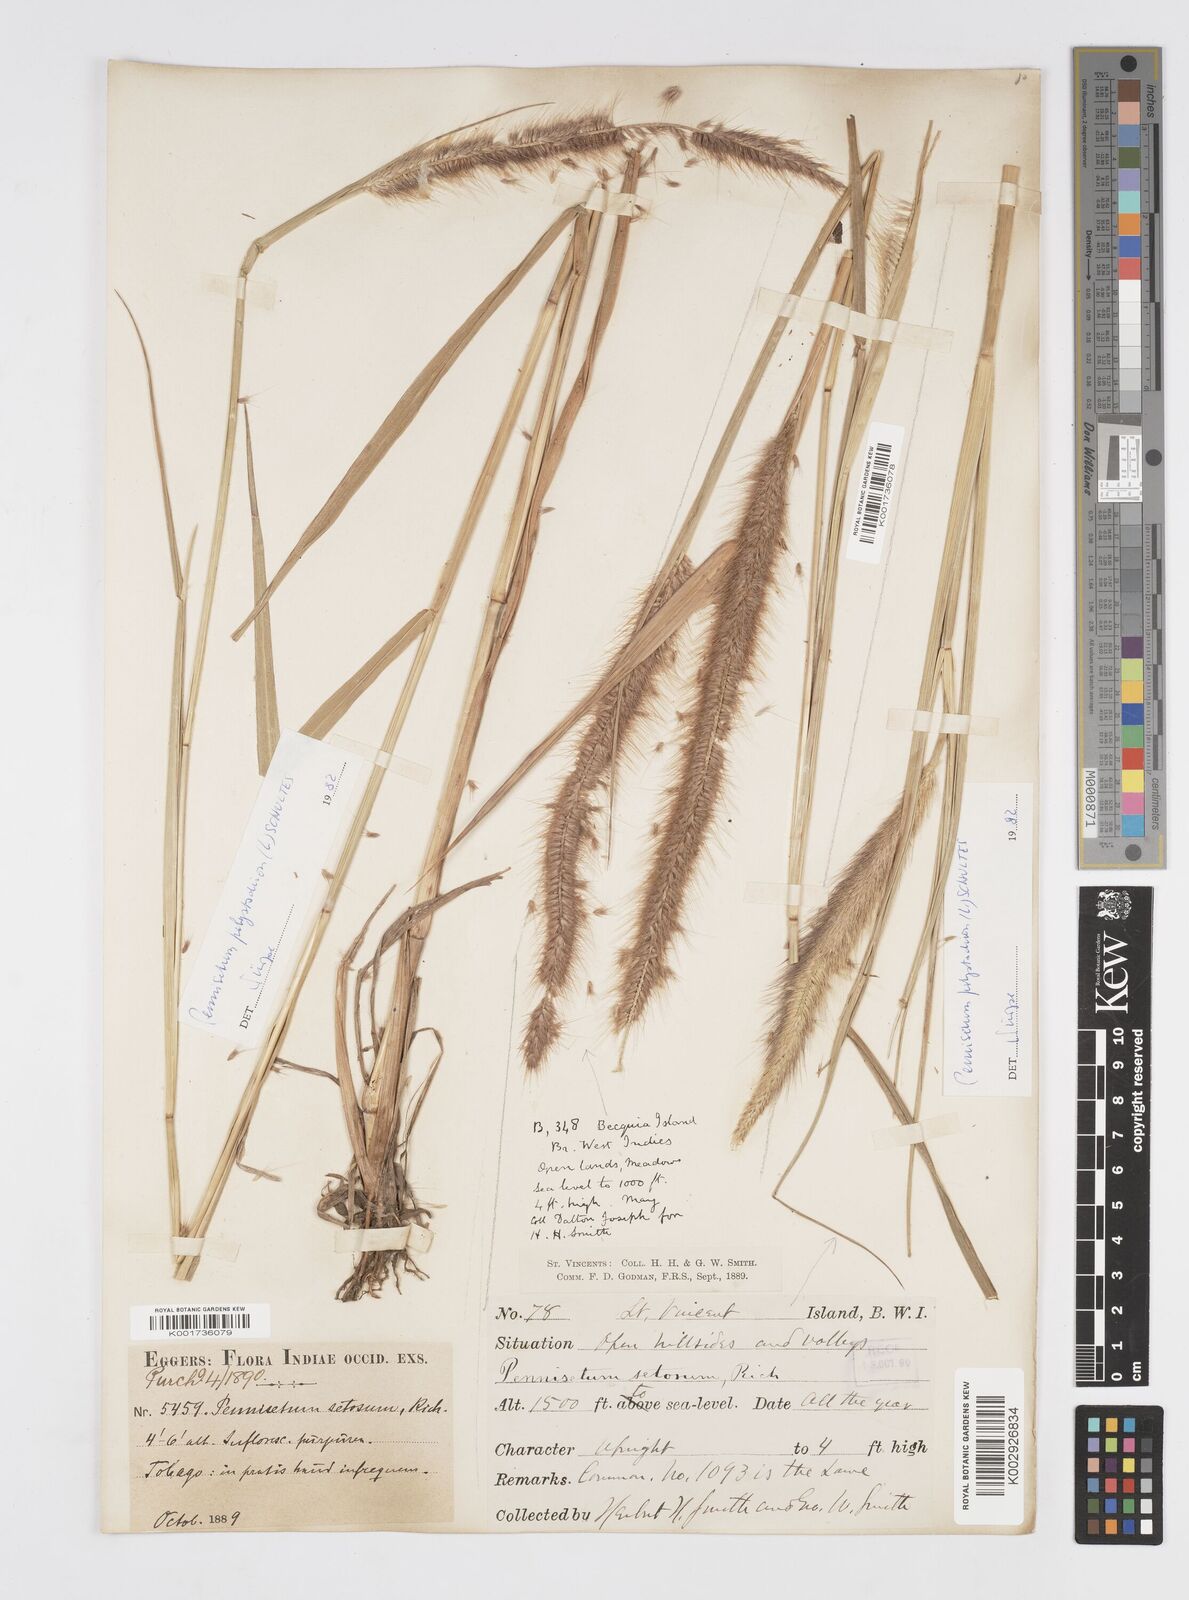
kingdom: Plantae
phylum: Tracheophyta
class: Liliopsida
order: Poales
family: Poaceae
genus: Cenchrus
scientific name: Cenchrus setosus
